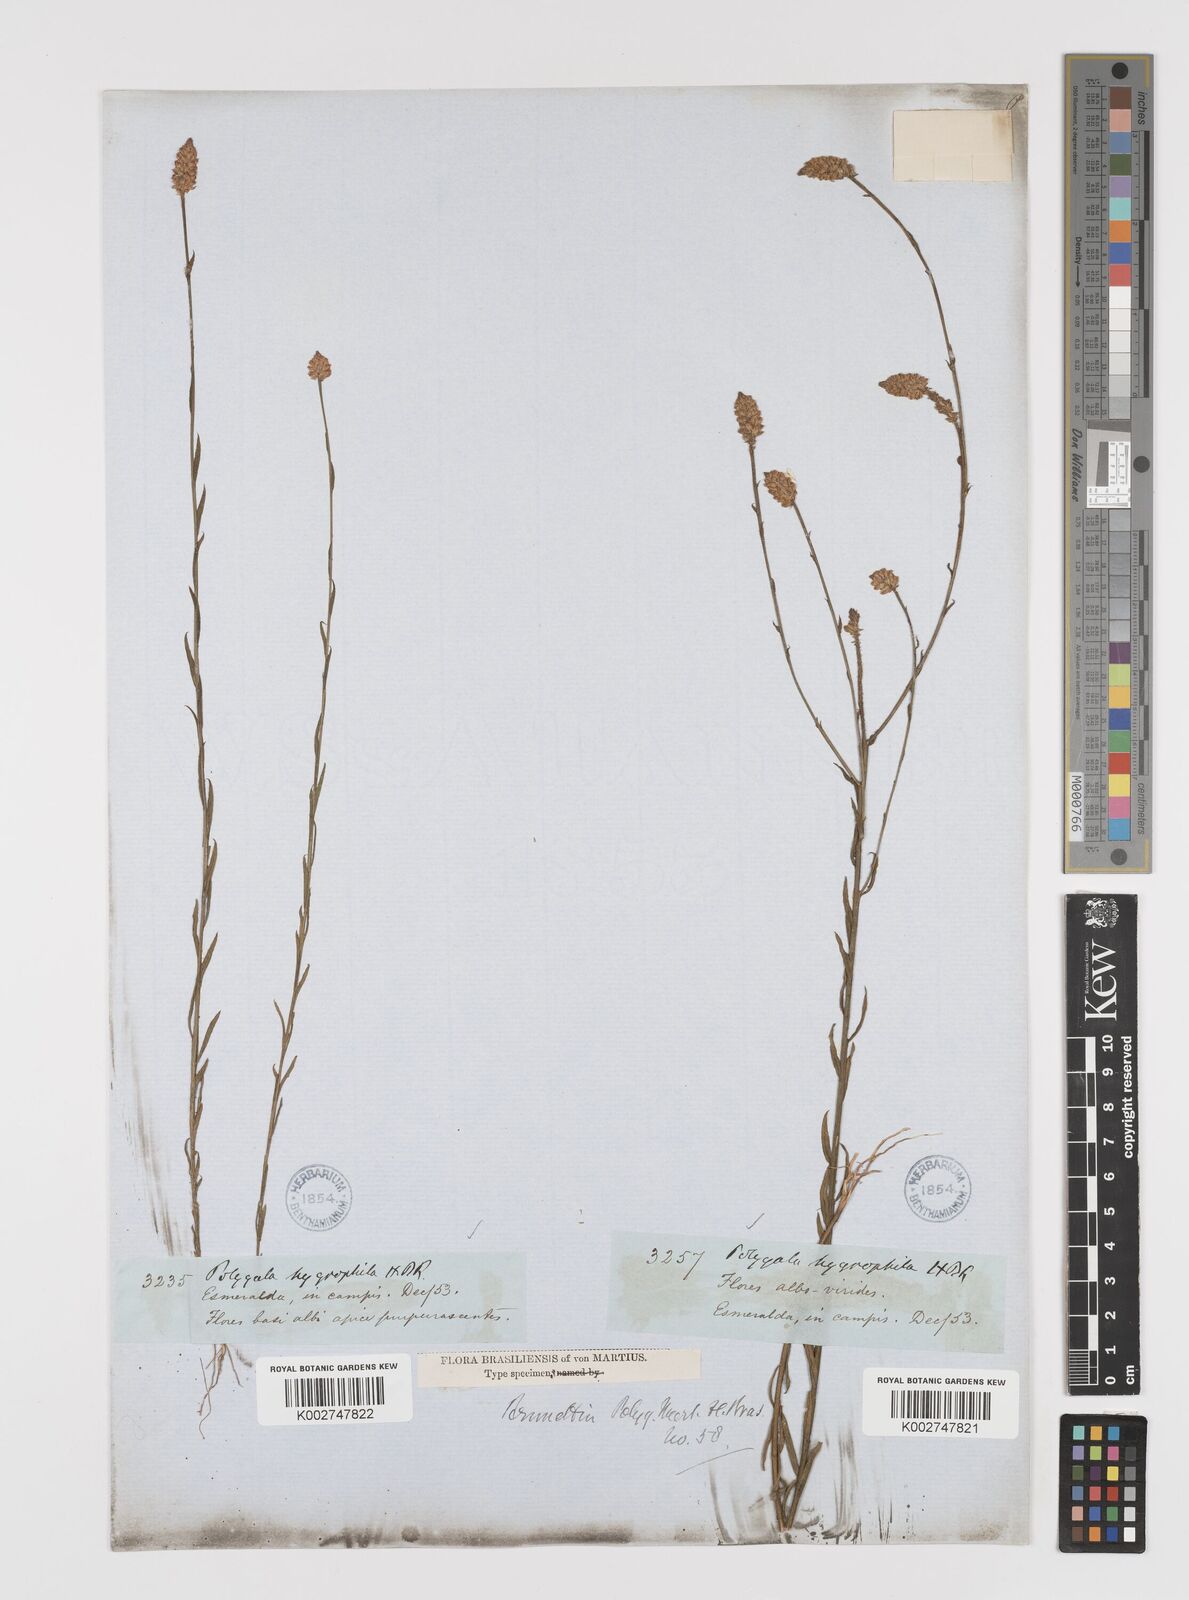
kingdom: Plantae
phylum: Tracheophyta
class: Magnoliopsida
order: Fabales
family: Polygalaceae
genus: Polygala
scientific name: Polygala hygrophila
